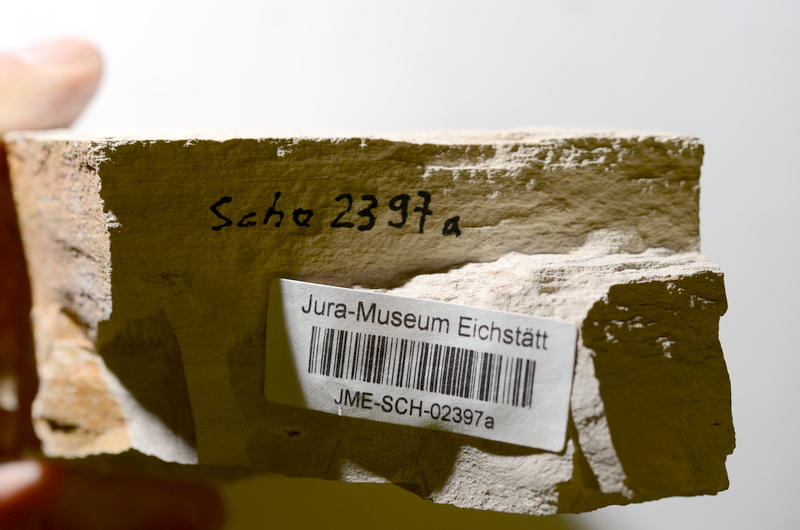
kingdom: Animalia
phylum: Chordata
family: Ascalaboidae
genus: Tharsis
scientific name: Tharsis dubius
